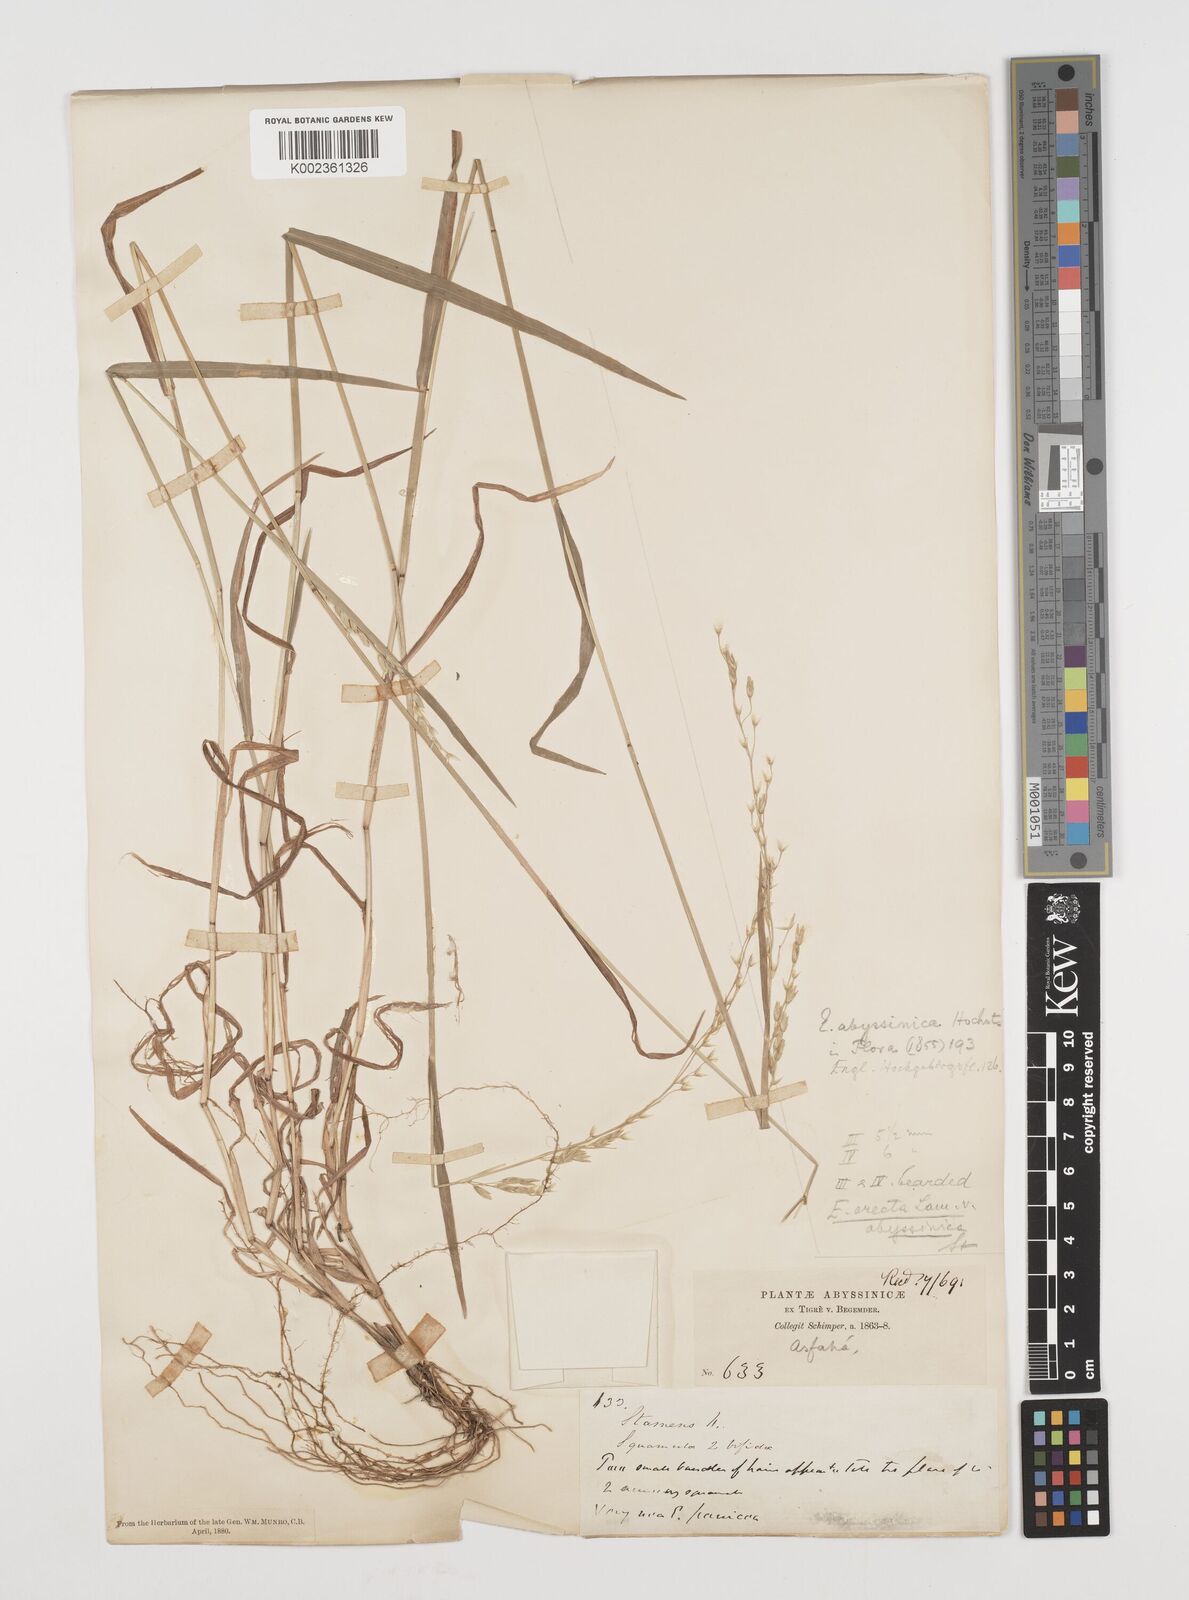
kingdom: Plantae
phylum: Tracheophyta
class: Liliopsida
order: Poales
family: Poaceae
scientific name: Poaceae
